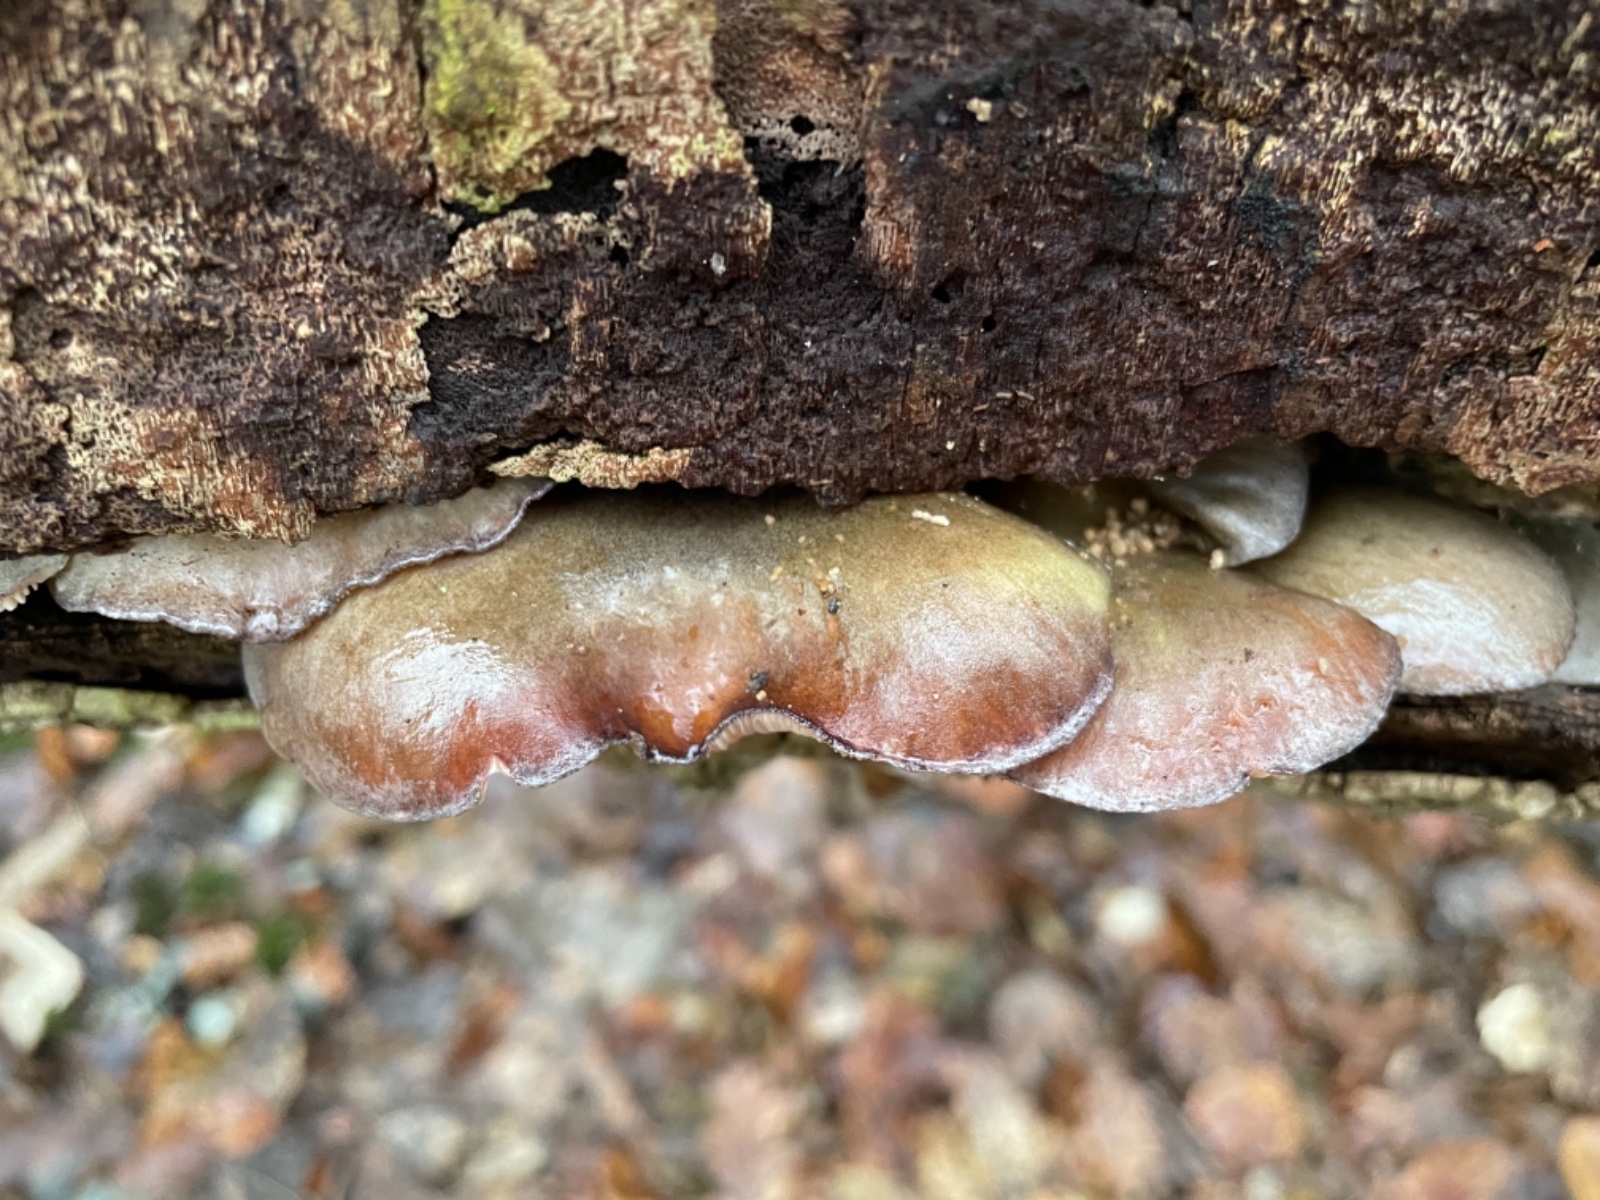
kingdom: Fungi
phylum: Basidiomycota
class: Agaricomycetes
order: Agaricales
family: Sarcomyxaceae
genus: Sarcomyxa
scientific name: Sarcomyxa serotina
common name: gummihat
